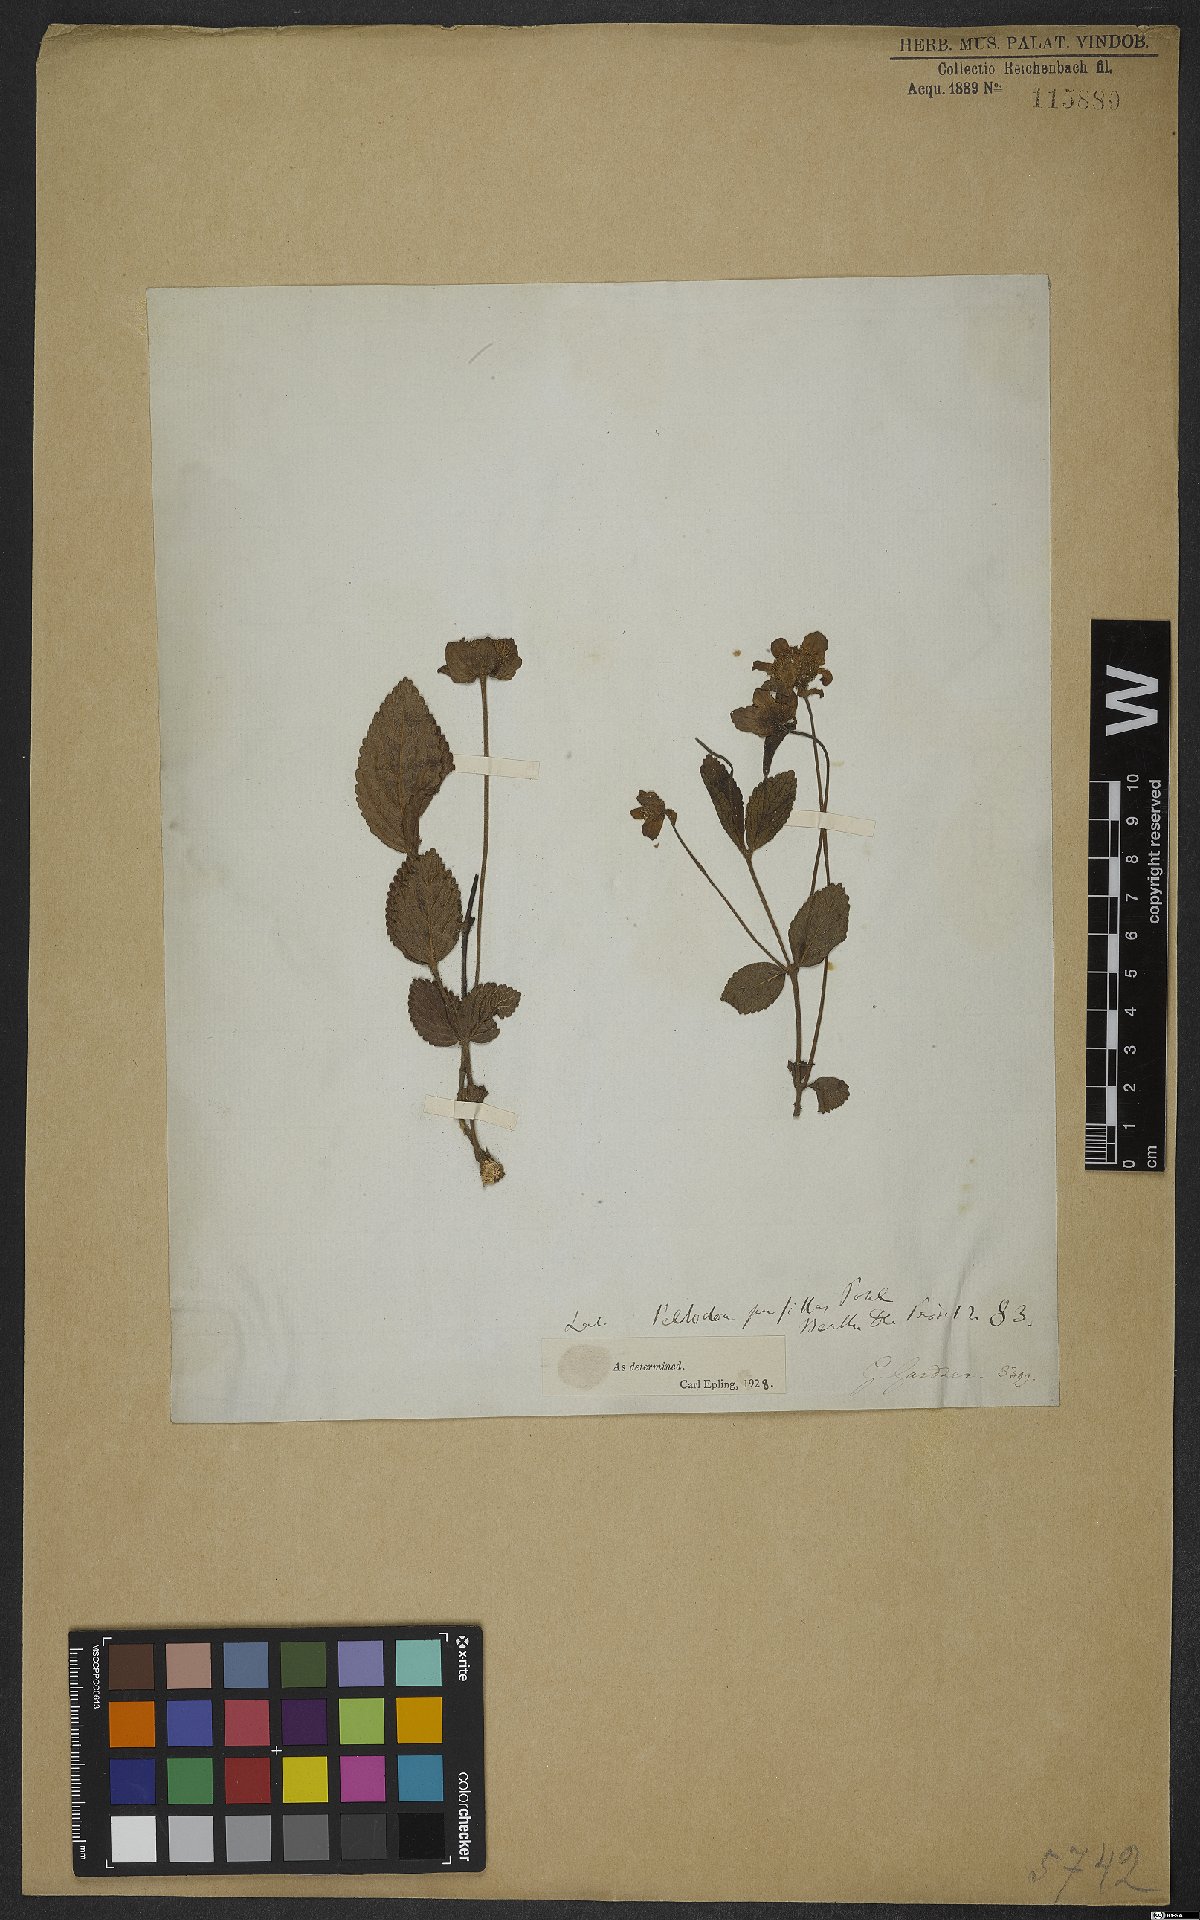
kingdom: Plantae
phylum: Tracheophyta
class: Magnoliopsida
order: Lamiales
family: Lamiaceae
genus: Hyptis
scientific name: Hyptis pusilla
